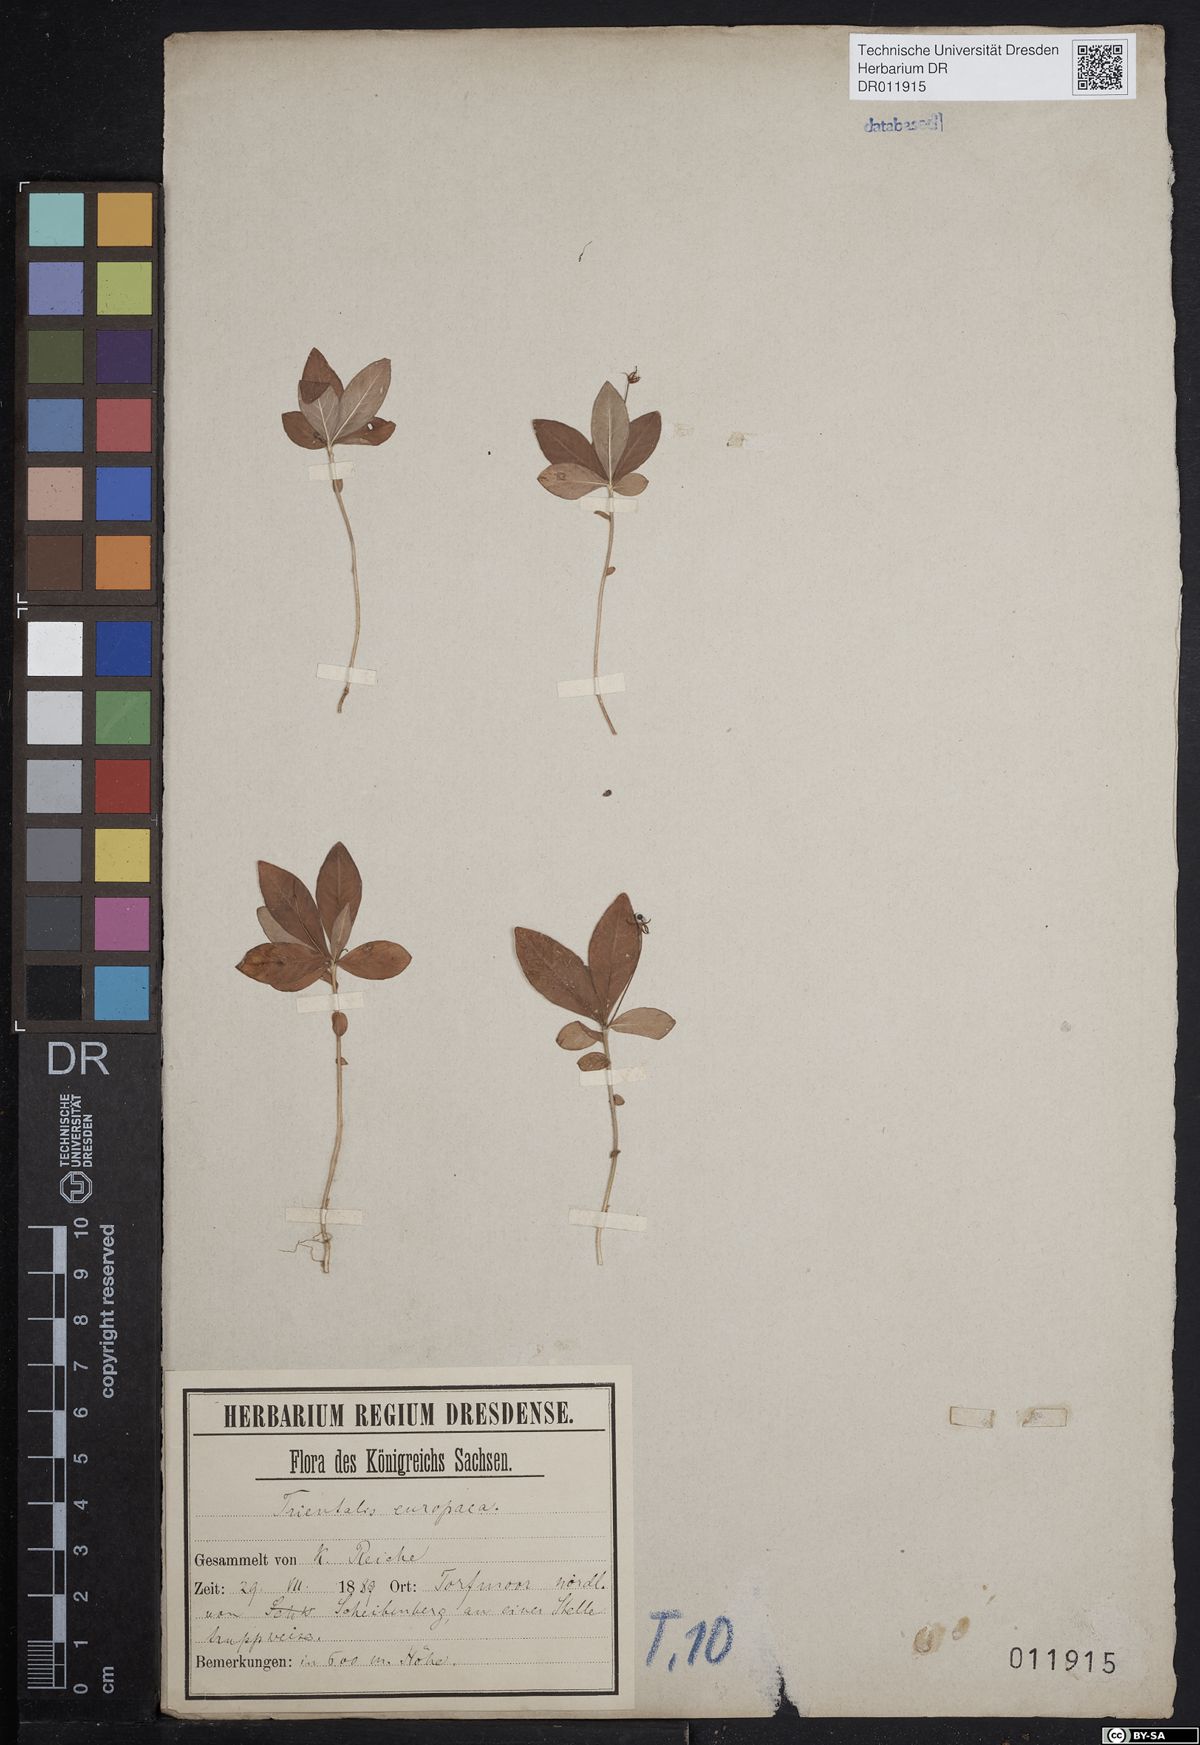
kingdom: Plantae
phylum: Tracheophyta
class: Magnoliopsida
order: Ericales
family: Primulaceae
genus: Lysimachia
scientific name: Lysimachia europaea
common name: Arctic starflower
